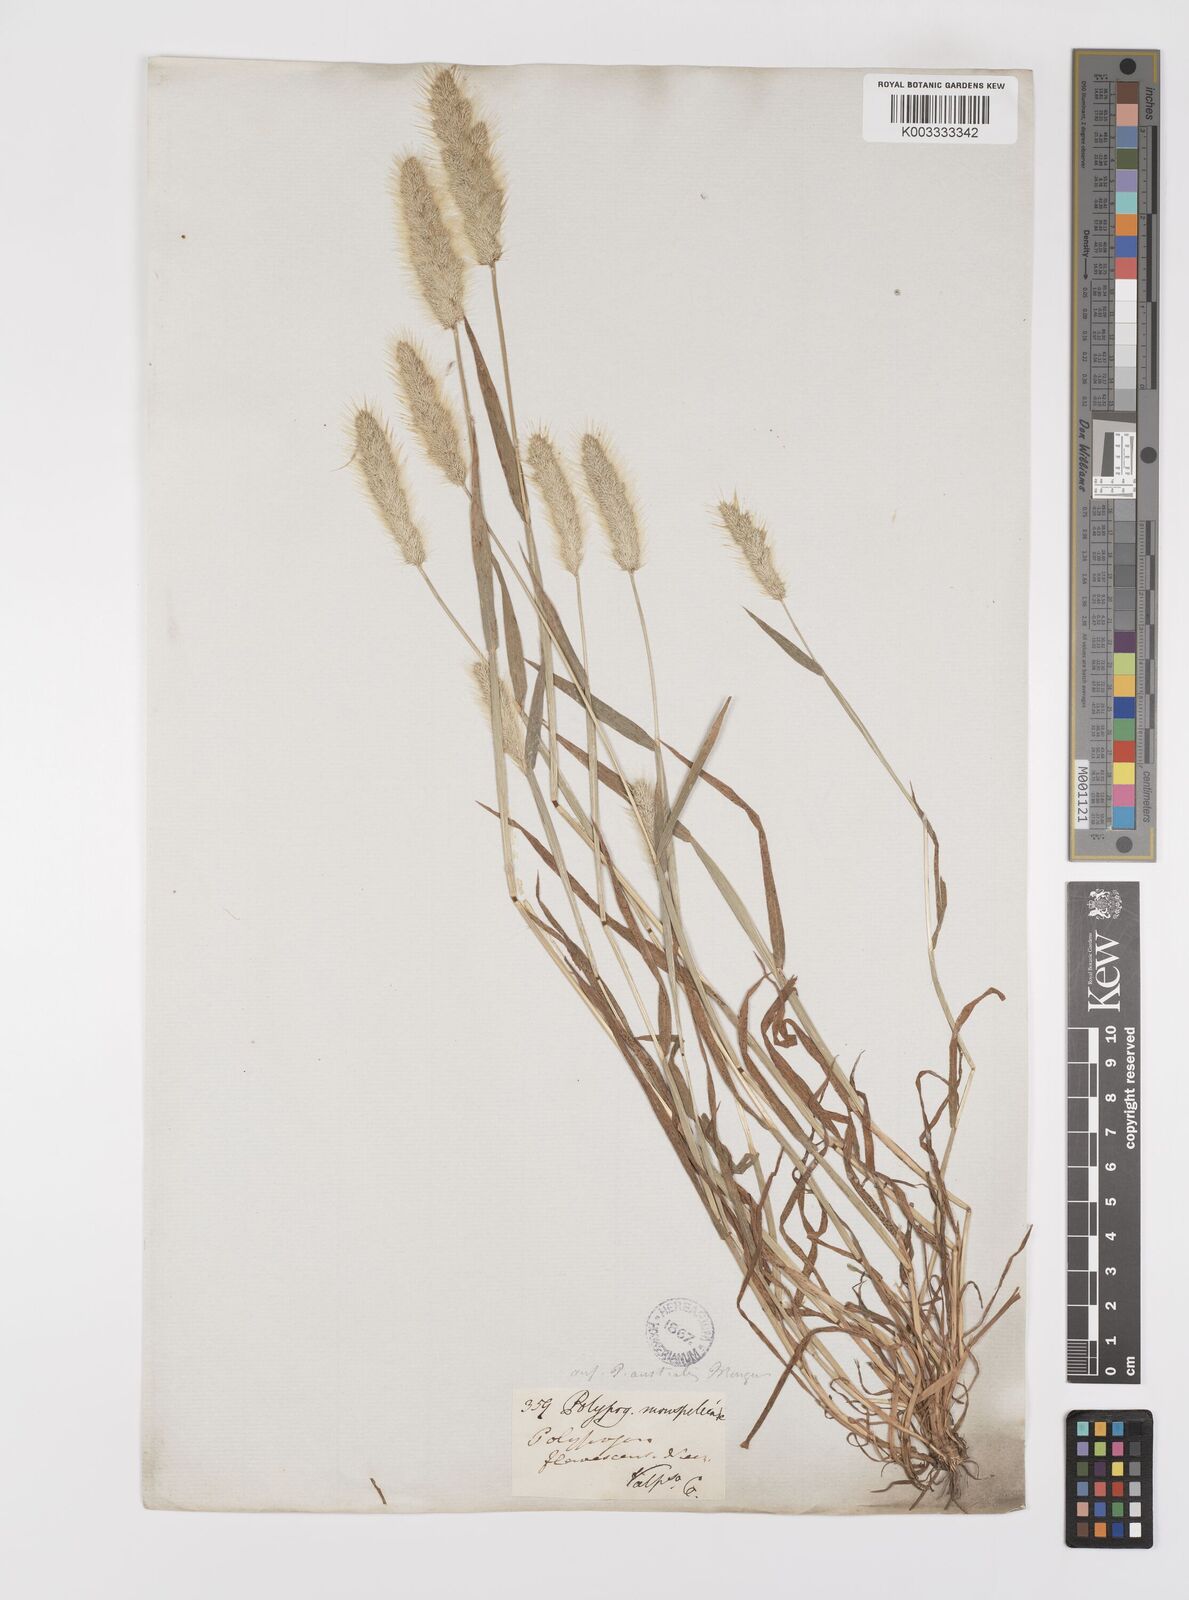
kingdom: Plantae
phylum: Tracheophyta
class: Liliopsida
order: Poales
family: Poaceae
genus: Polypogon
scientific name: Polypogon monspeliensis
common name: Annual rabbitsfoot grass
